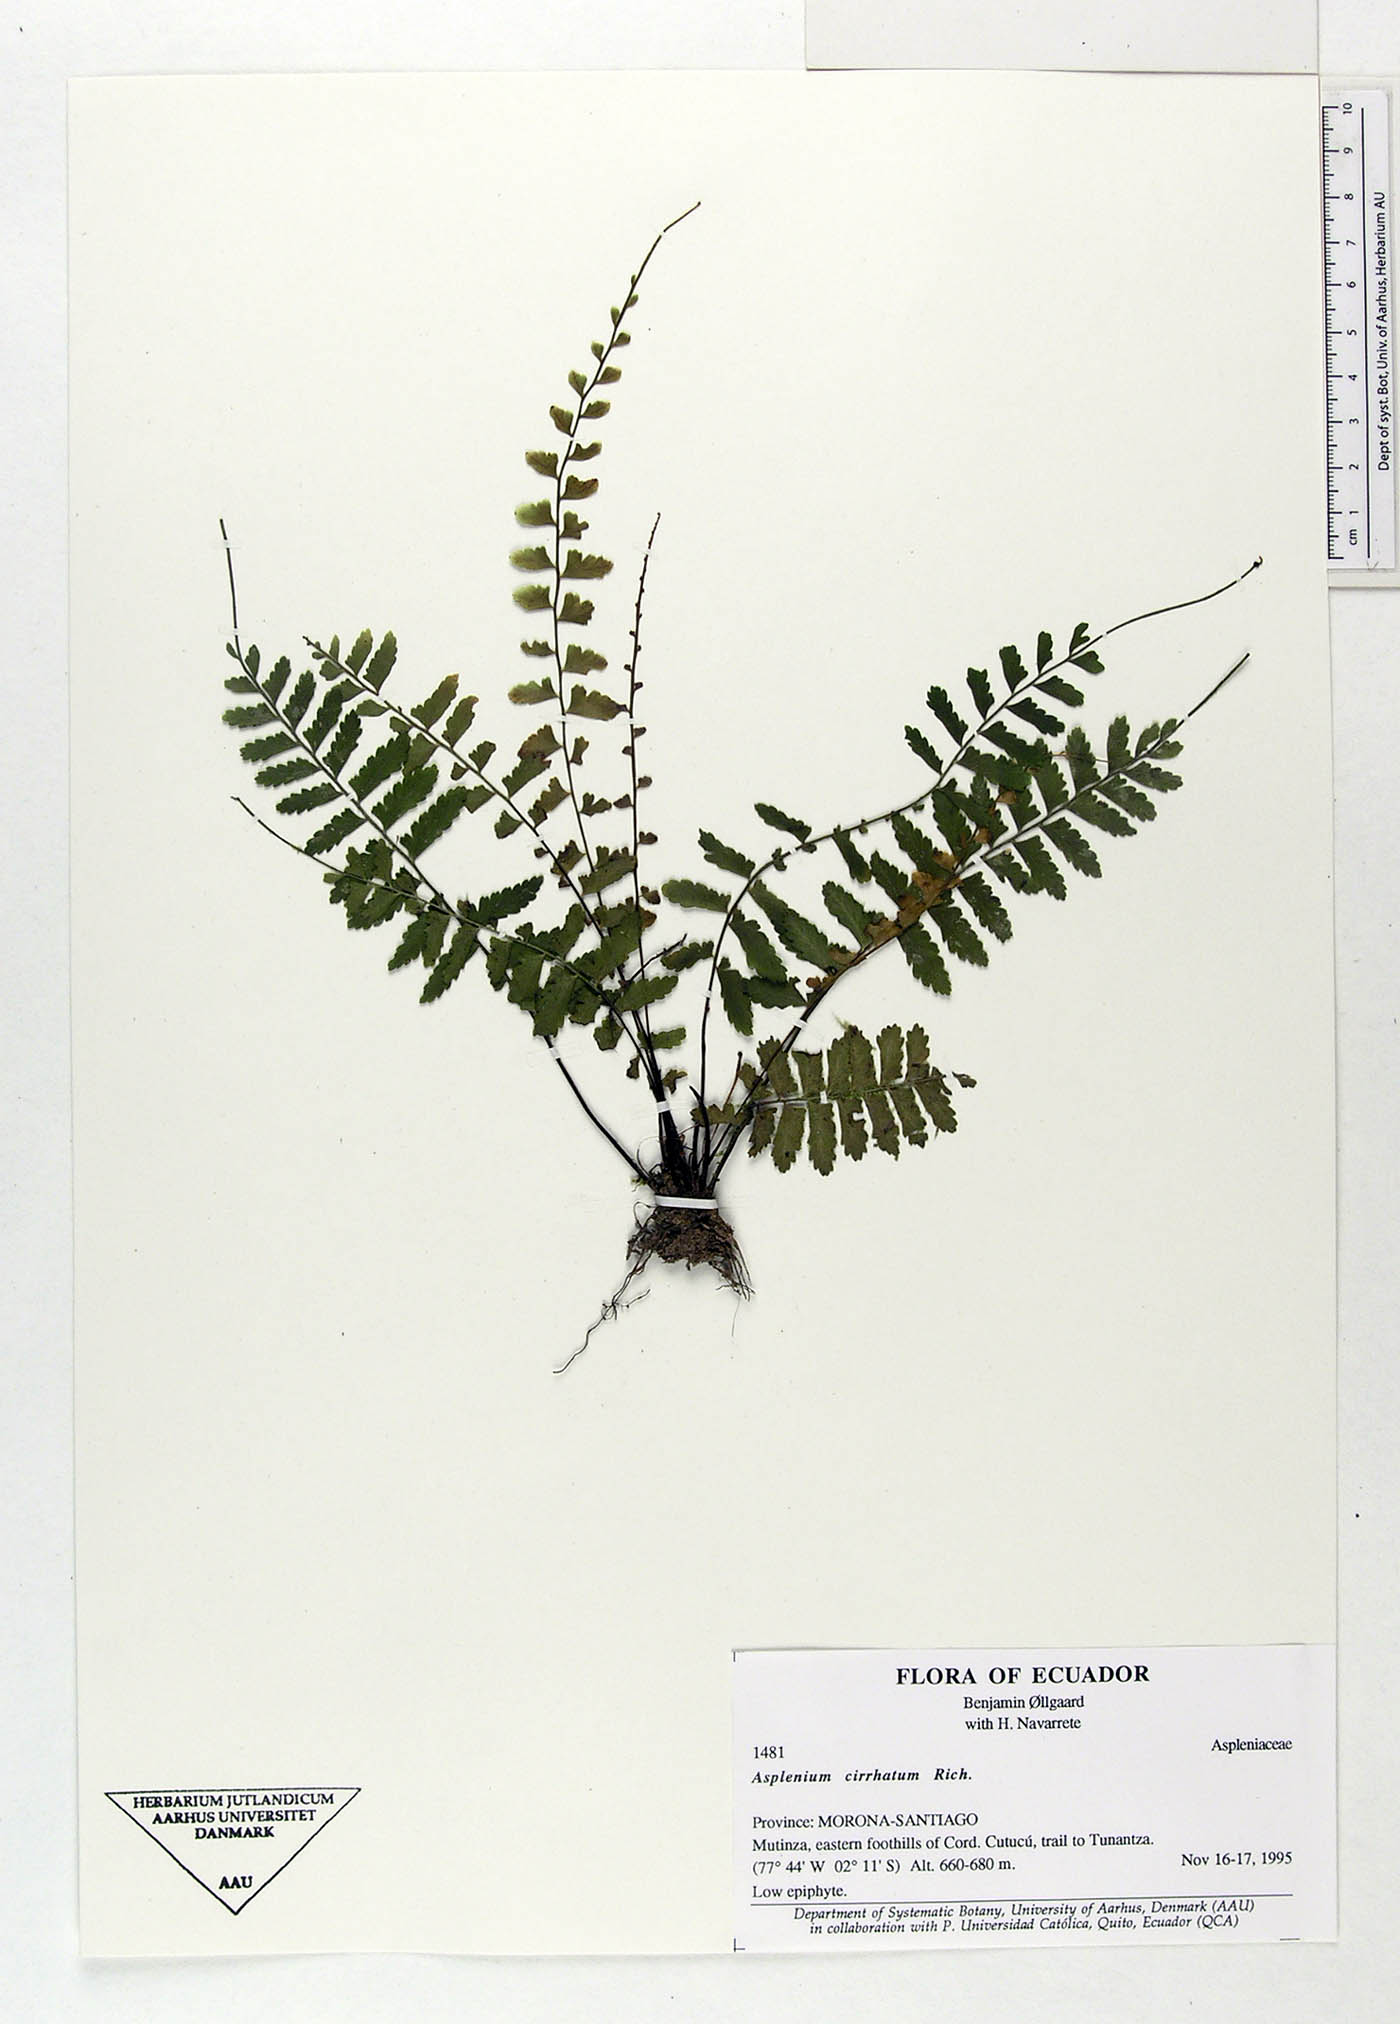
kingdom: Plantae
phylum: Tracheophyta
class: Polypodiopsida
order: Polypodiales
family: Aspleniaceae
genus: Asplenium
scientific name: Asplenium cirrhatum
